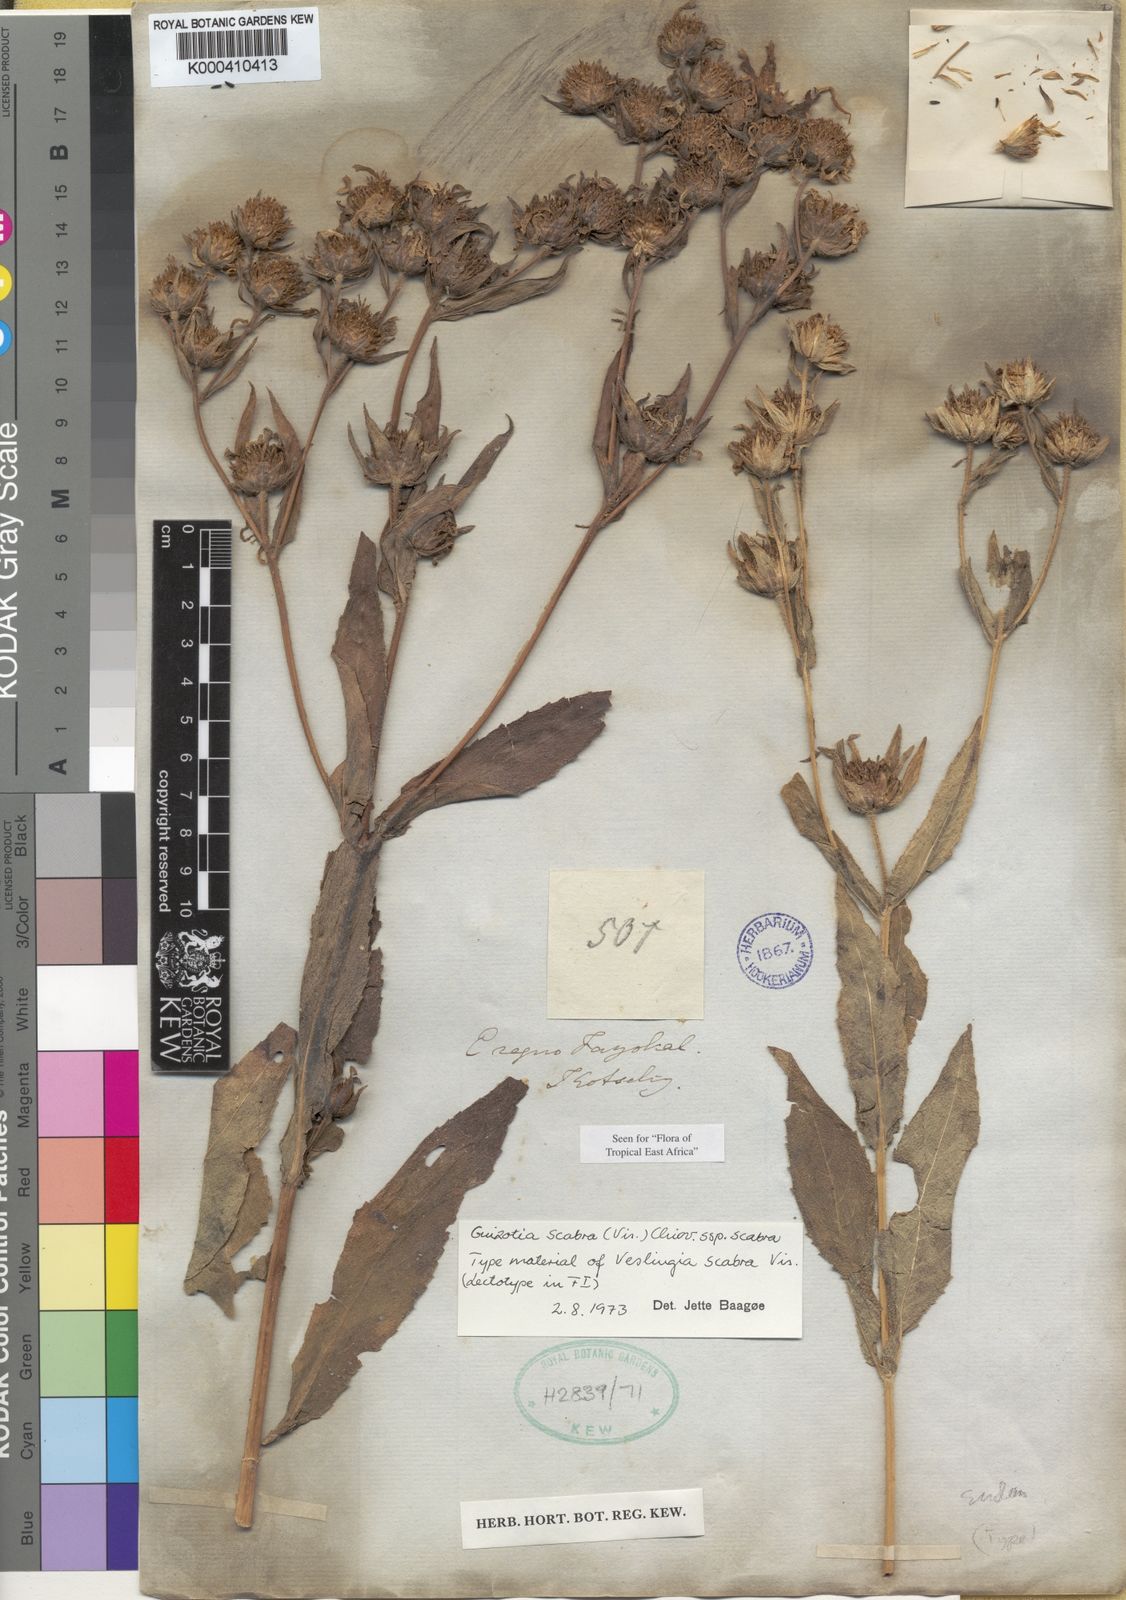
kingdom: Plantae
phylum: Tracheophyta
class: Magnoliopsida
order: Asterales
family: Asteraceae
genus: Guizotia
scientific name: Guizotia scabra
